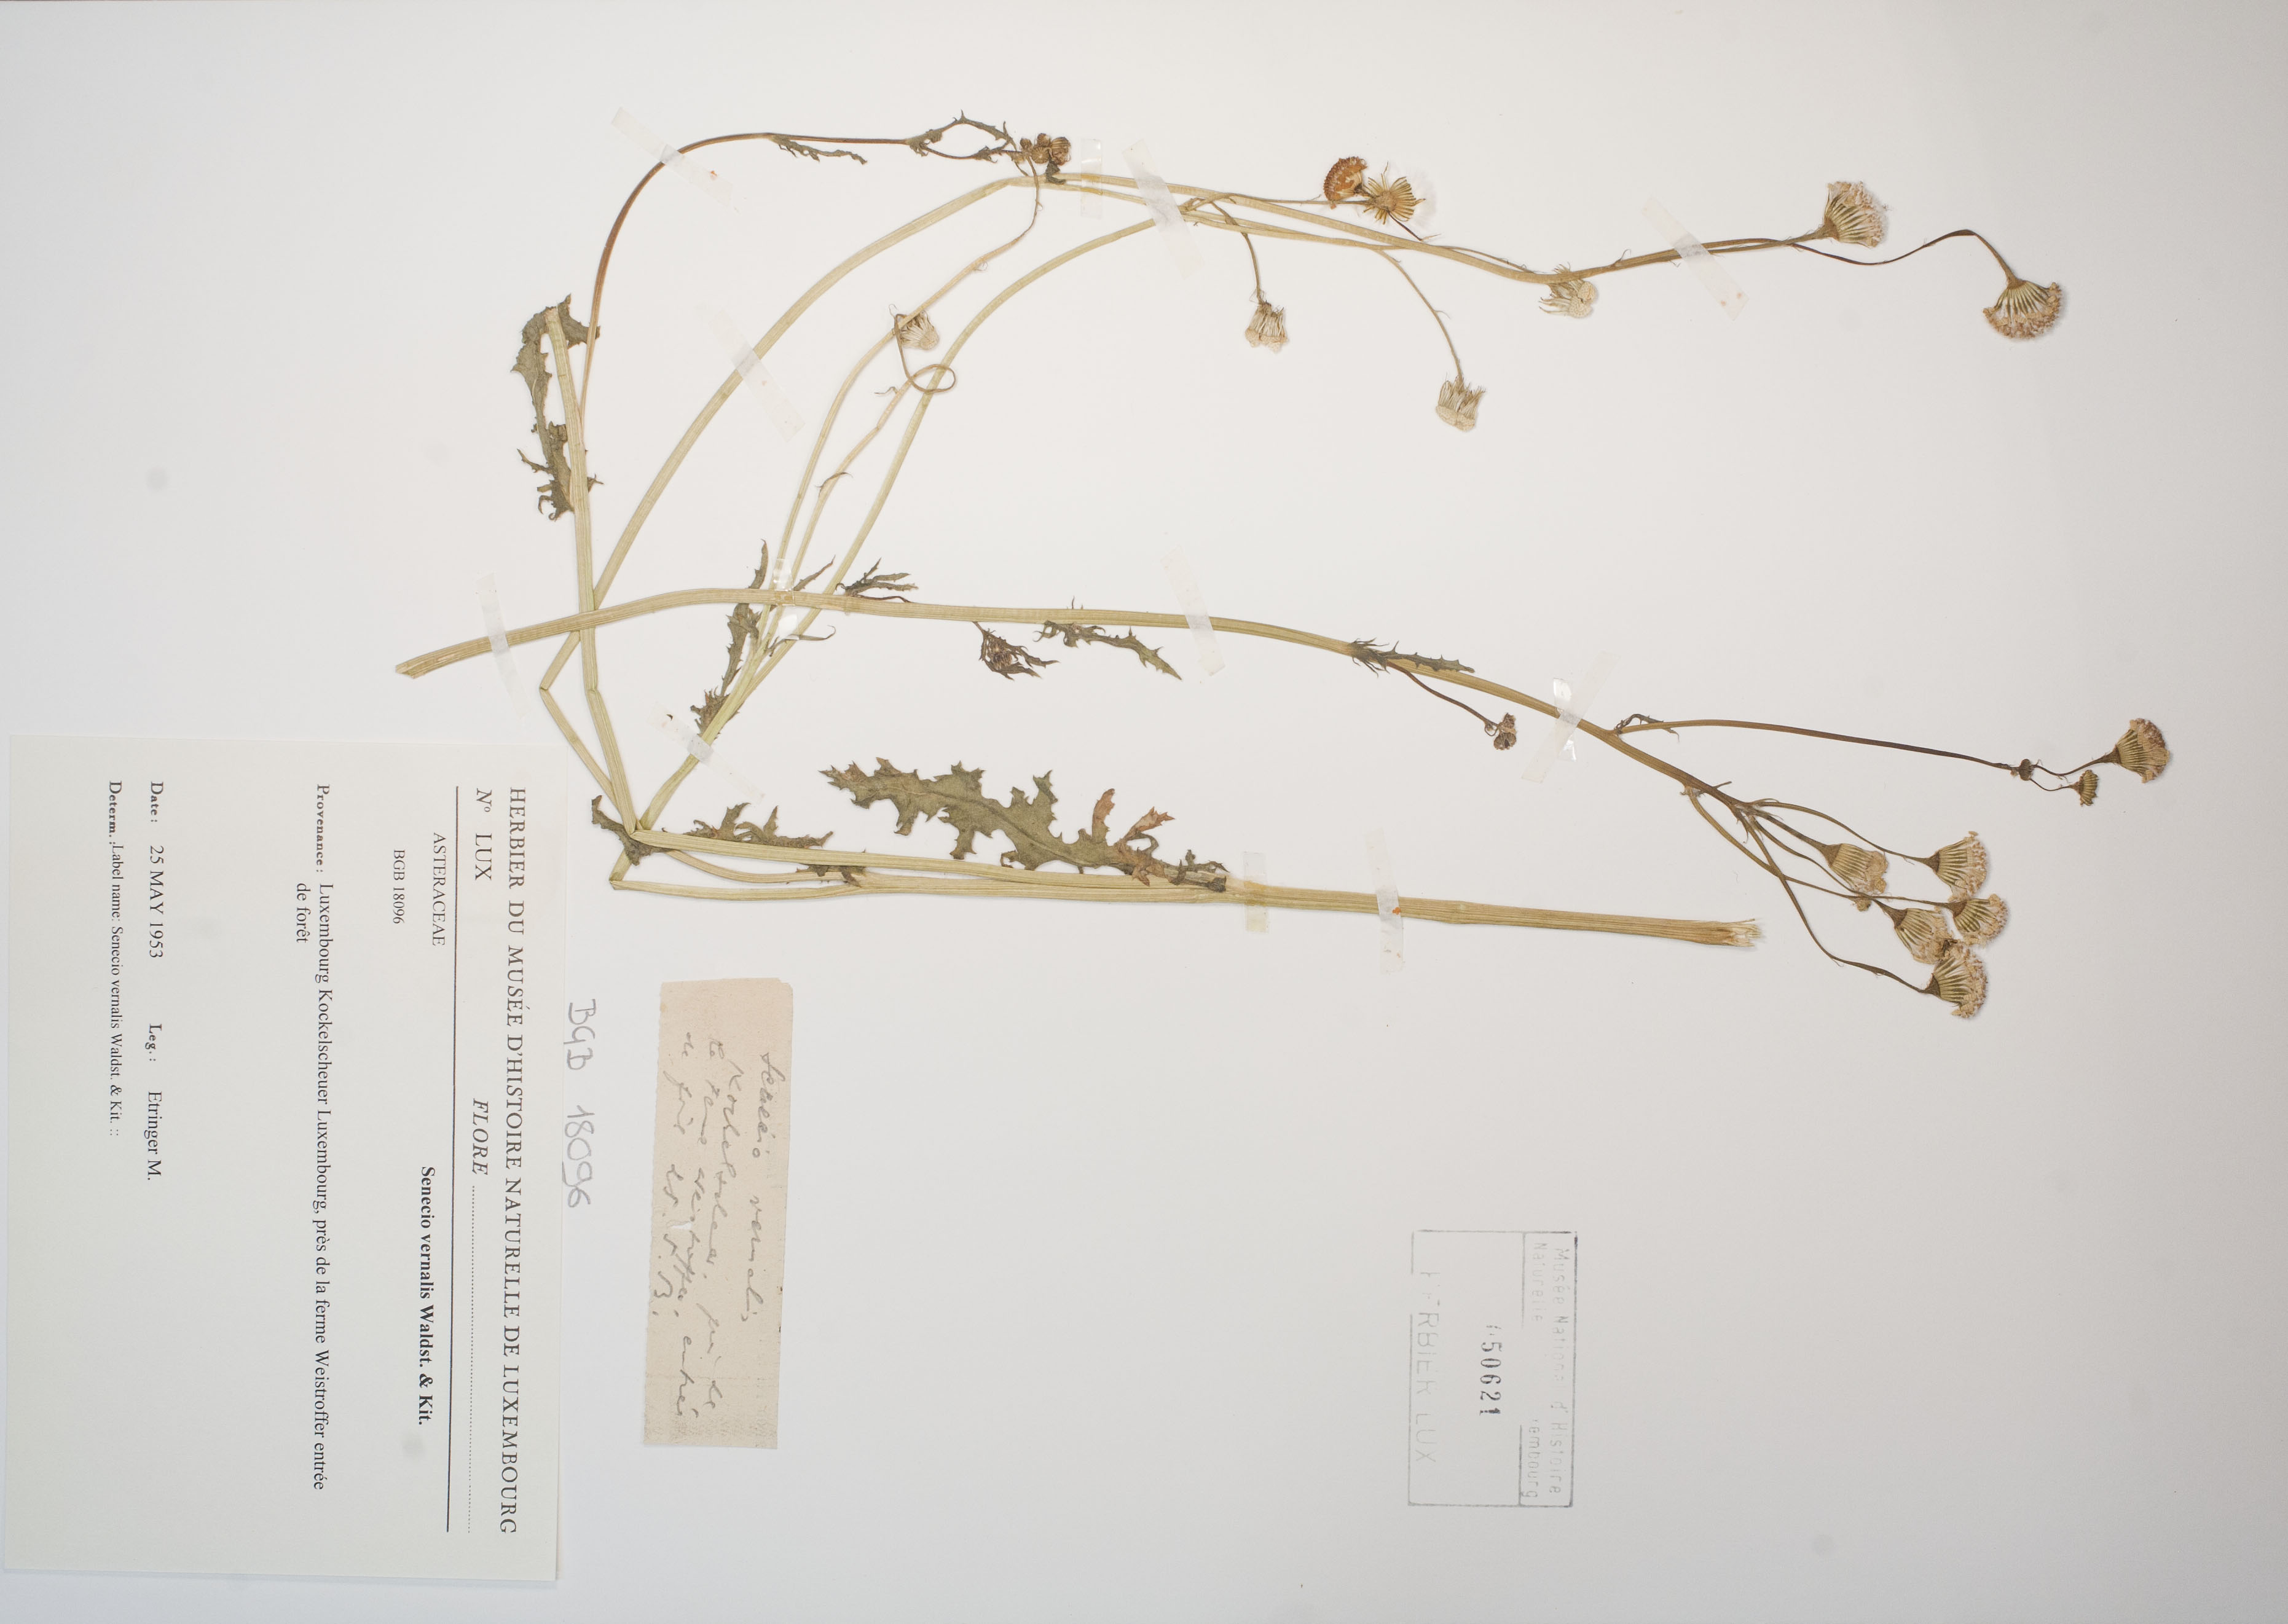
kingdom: Plantae
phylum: Tracheophyta
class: Magnoliopsida
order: Asterales
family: Asteraceae
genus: Senecio
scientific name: Senecio vernalis
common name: Eastern groundsel
